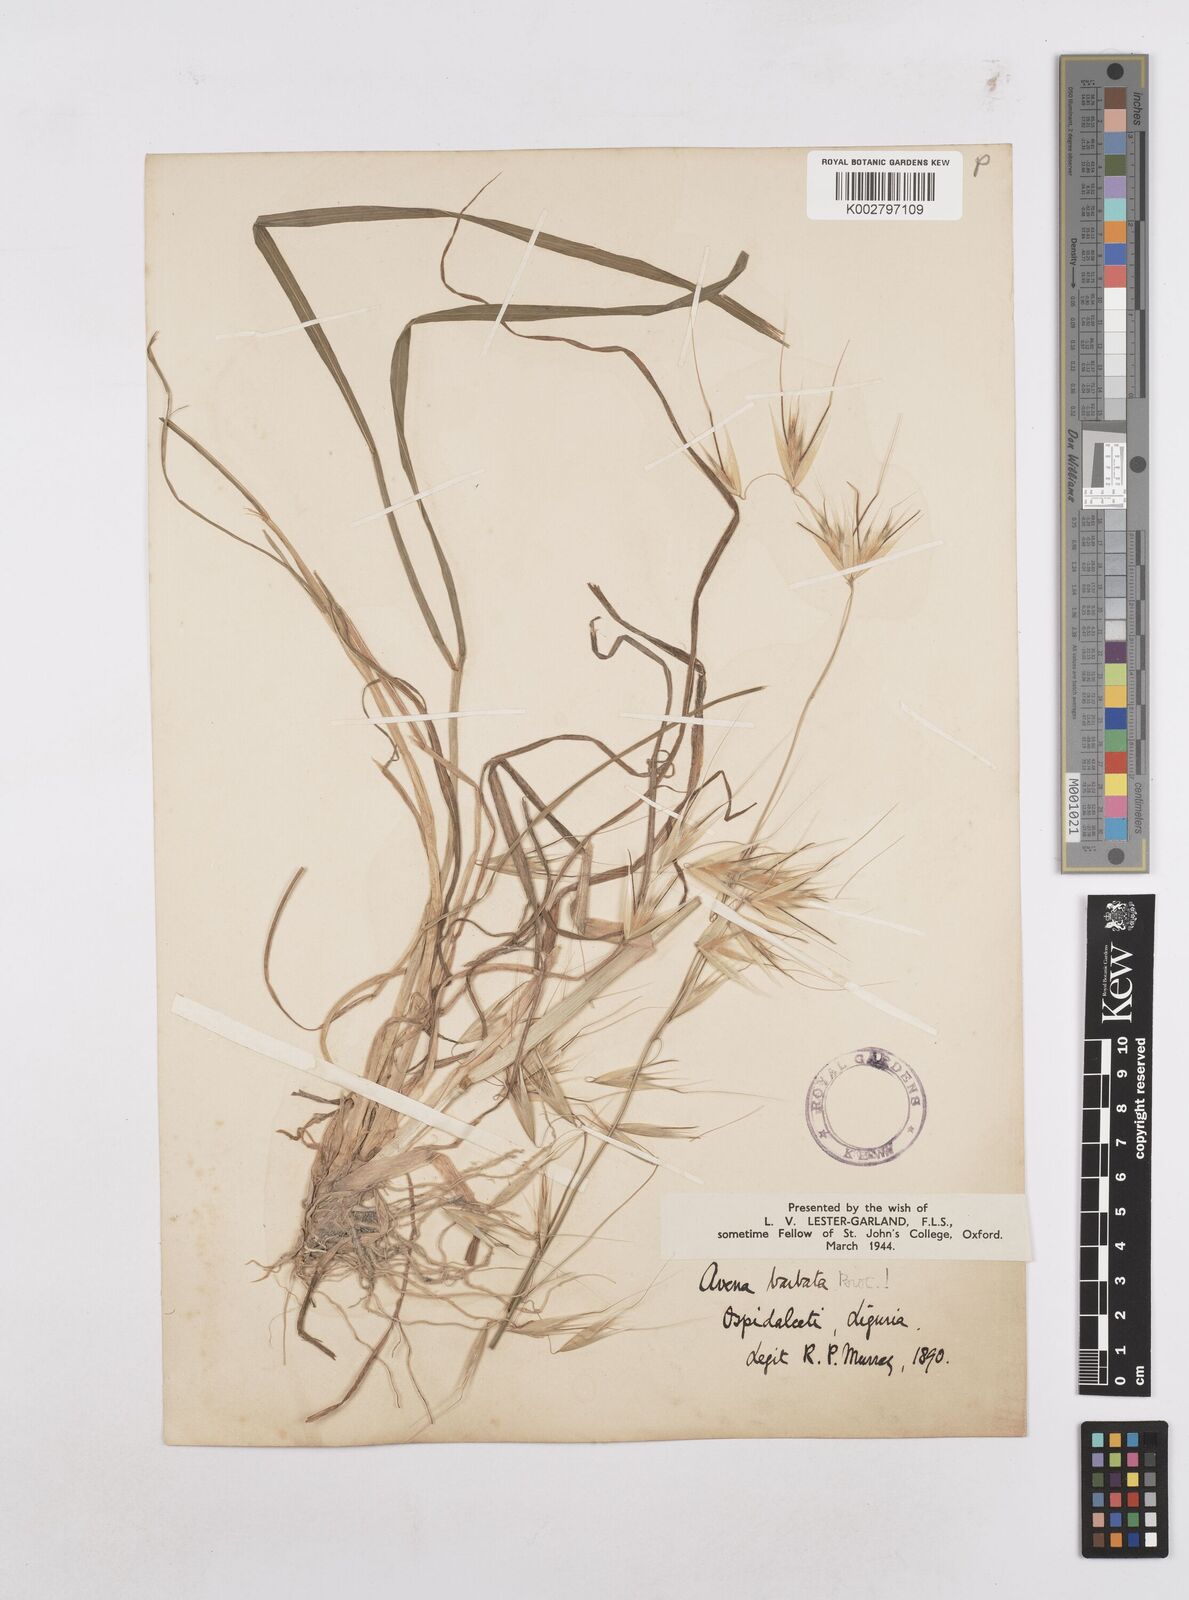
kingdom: Plantae
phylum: Tracheophyta
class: Liliopsida
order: Poales
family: Poaceae
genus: Avena
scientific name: Avena
